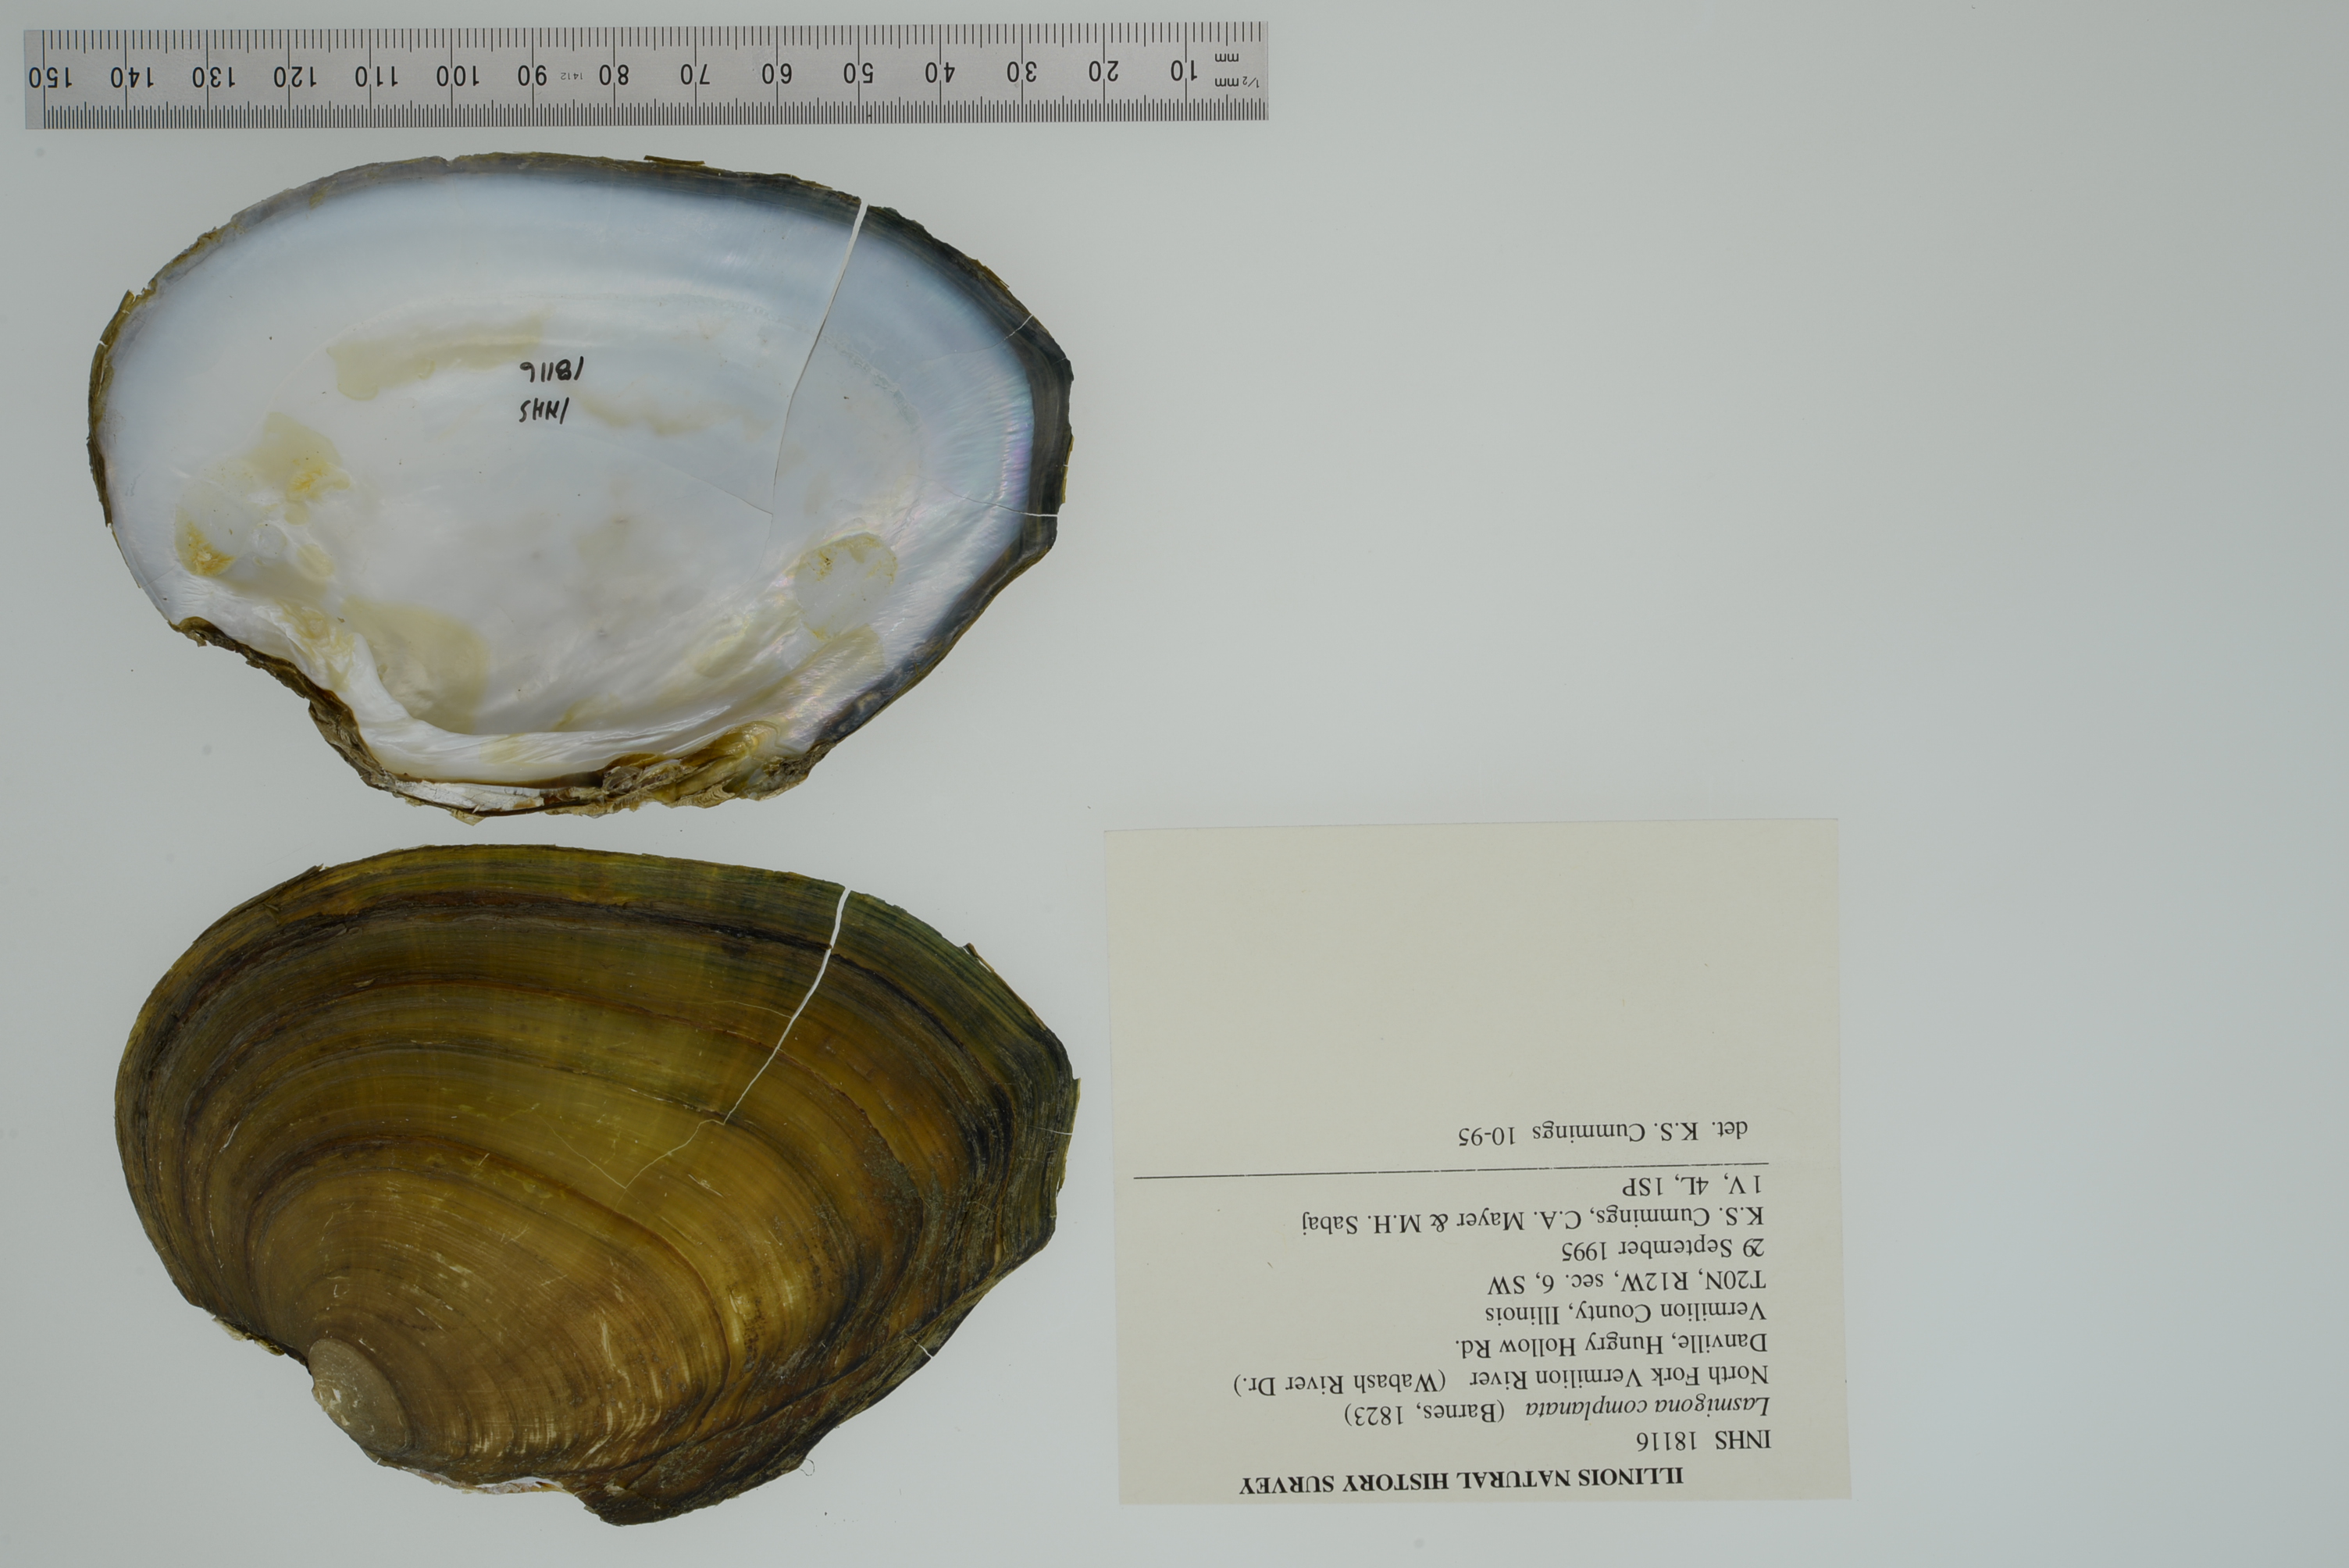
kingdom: Animalia
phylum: Mollusca
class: Bivalvia
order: Unionida
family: Unionidae
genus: Lasmigona
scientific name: Lasmigona complanata
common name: White heelsplitter
